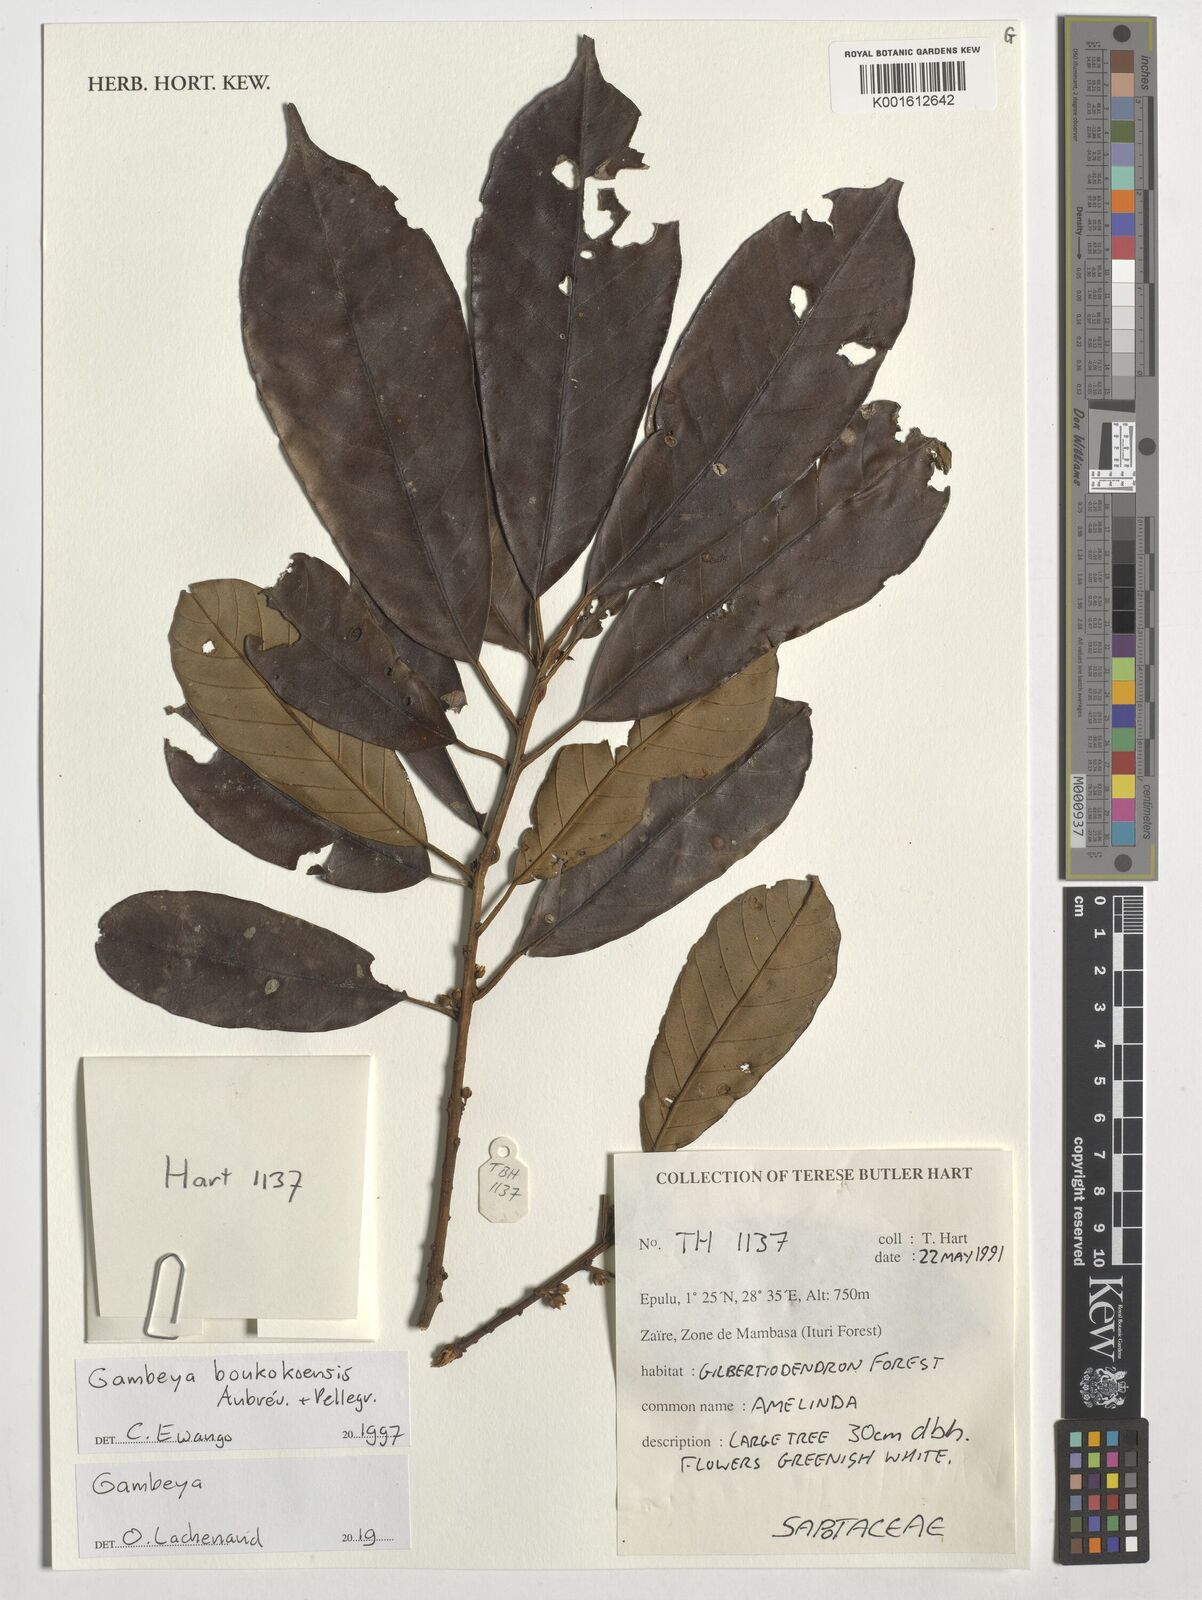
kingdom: Plantae
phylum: Tracheophyta
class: Magnoliopsida
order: Ericales
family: Sapotaceae
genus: Gambeya
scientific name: Gambeya boukokoensis
